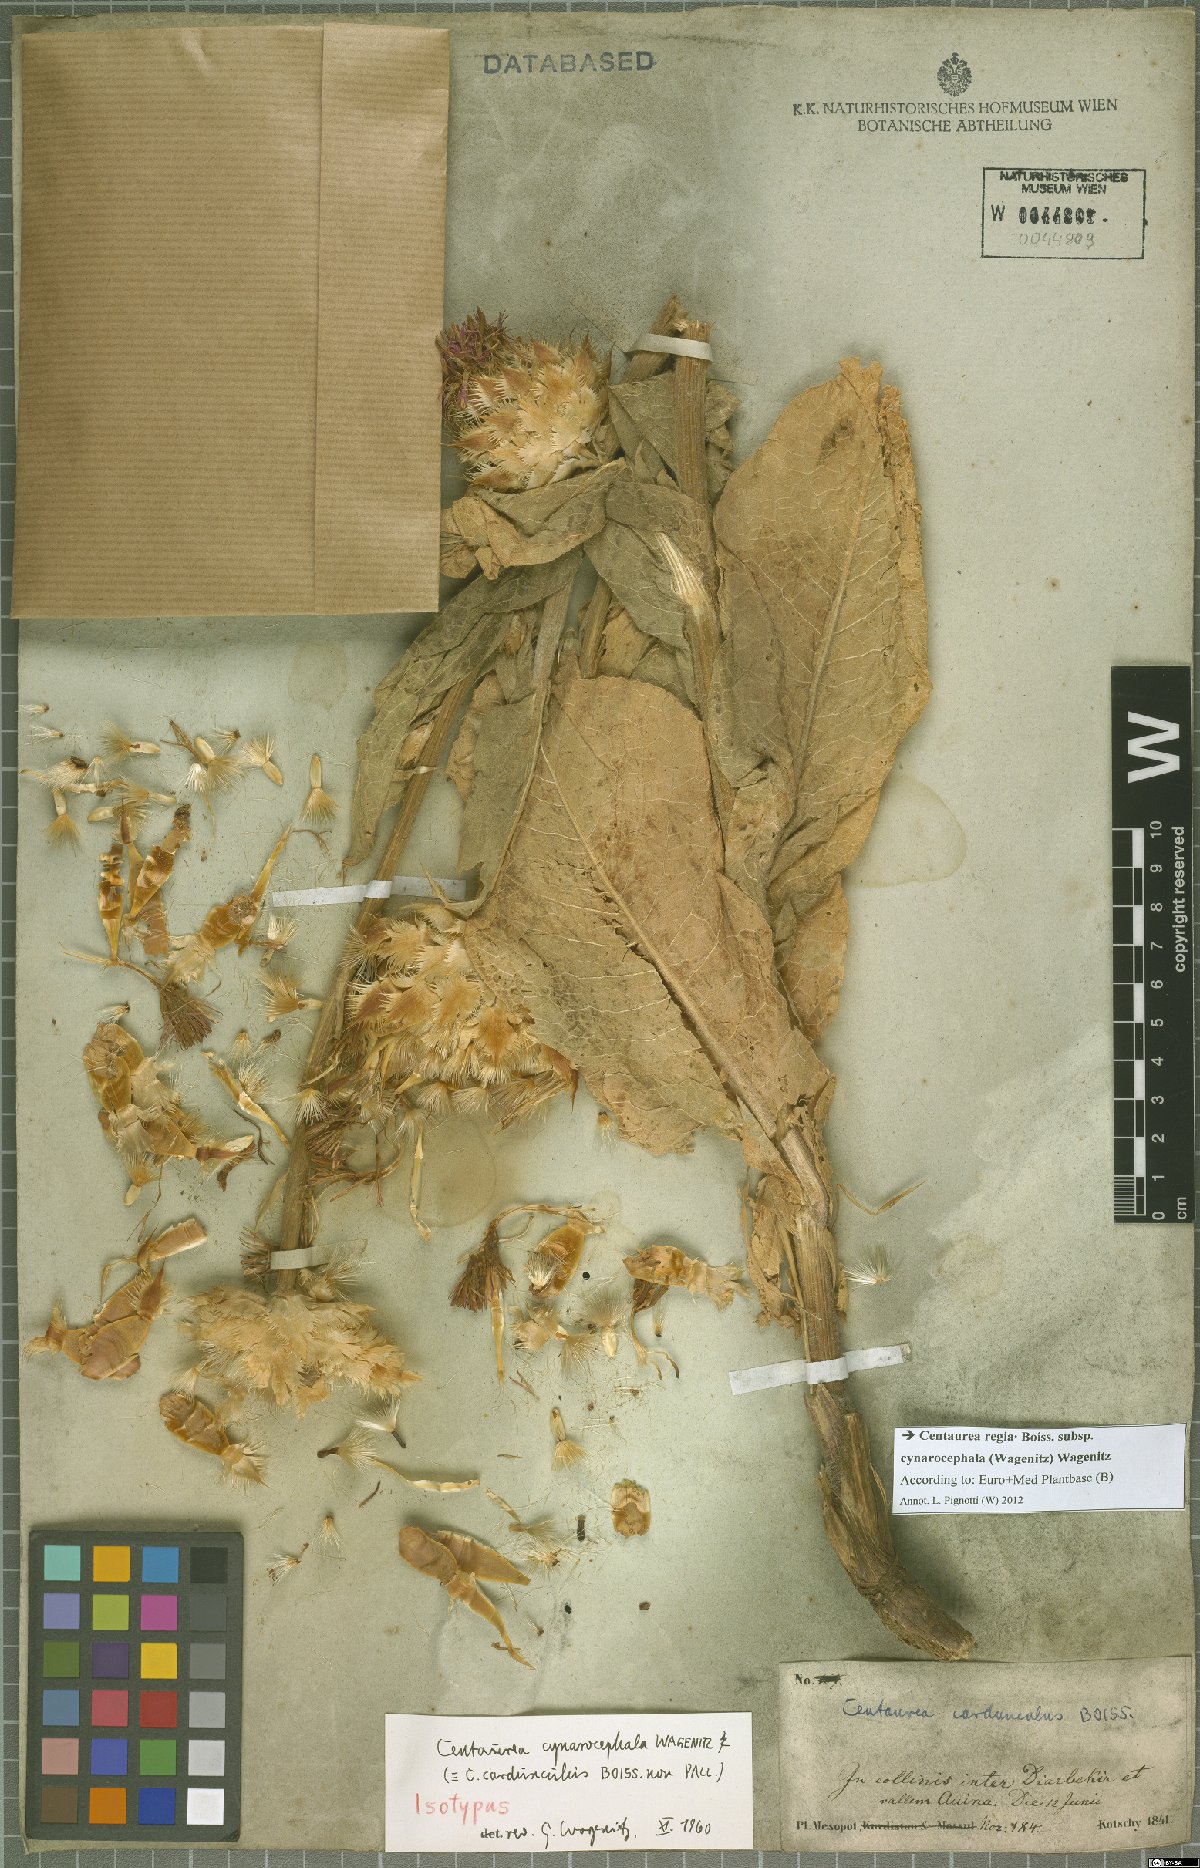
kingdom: Plantae
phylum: Tracheophyta
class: Magnoliopsida
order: Asterales
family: Asteraceae
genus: Centaurea
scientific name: Centaurea regia
